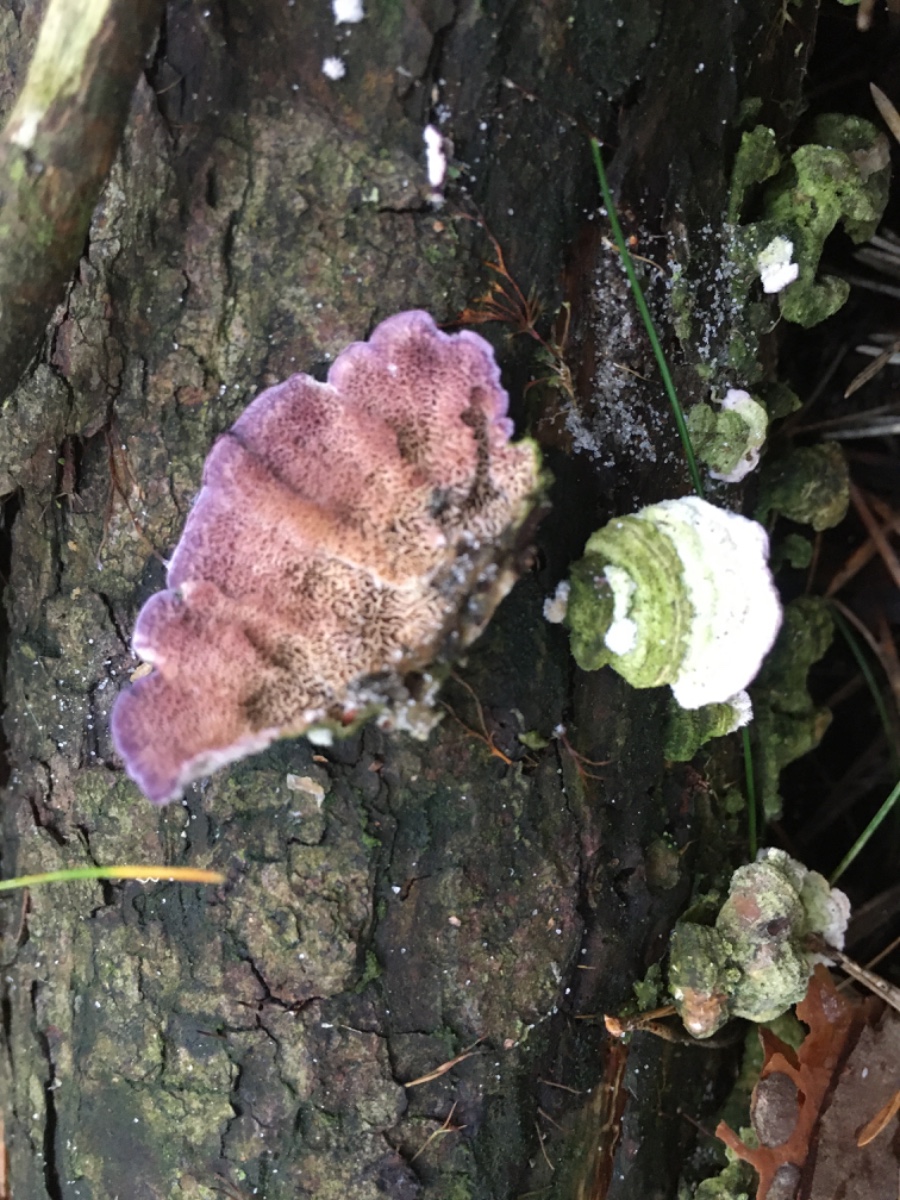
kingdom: Fungi
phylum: Basidiomycota
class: Agaricomycetes
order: Hymenochaetales
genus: Trichaptum
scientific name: Trichaptum fuscoviolaceum
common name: tandet violporesvamp
